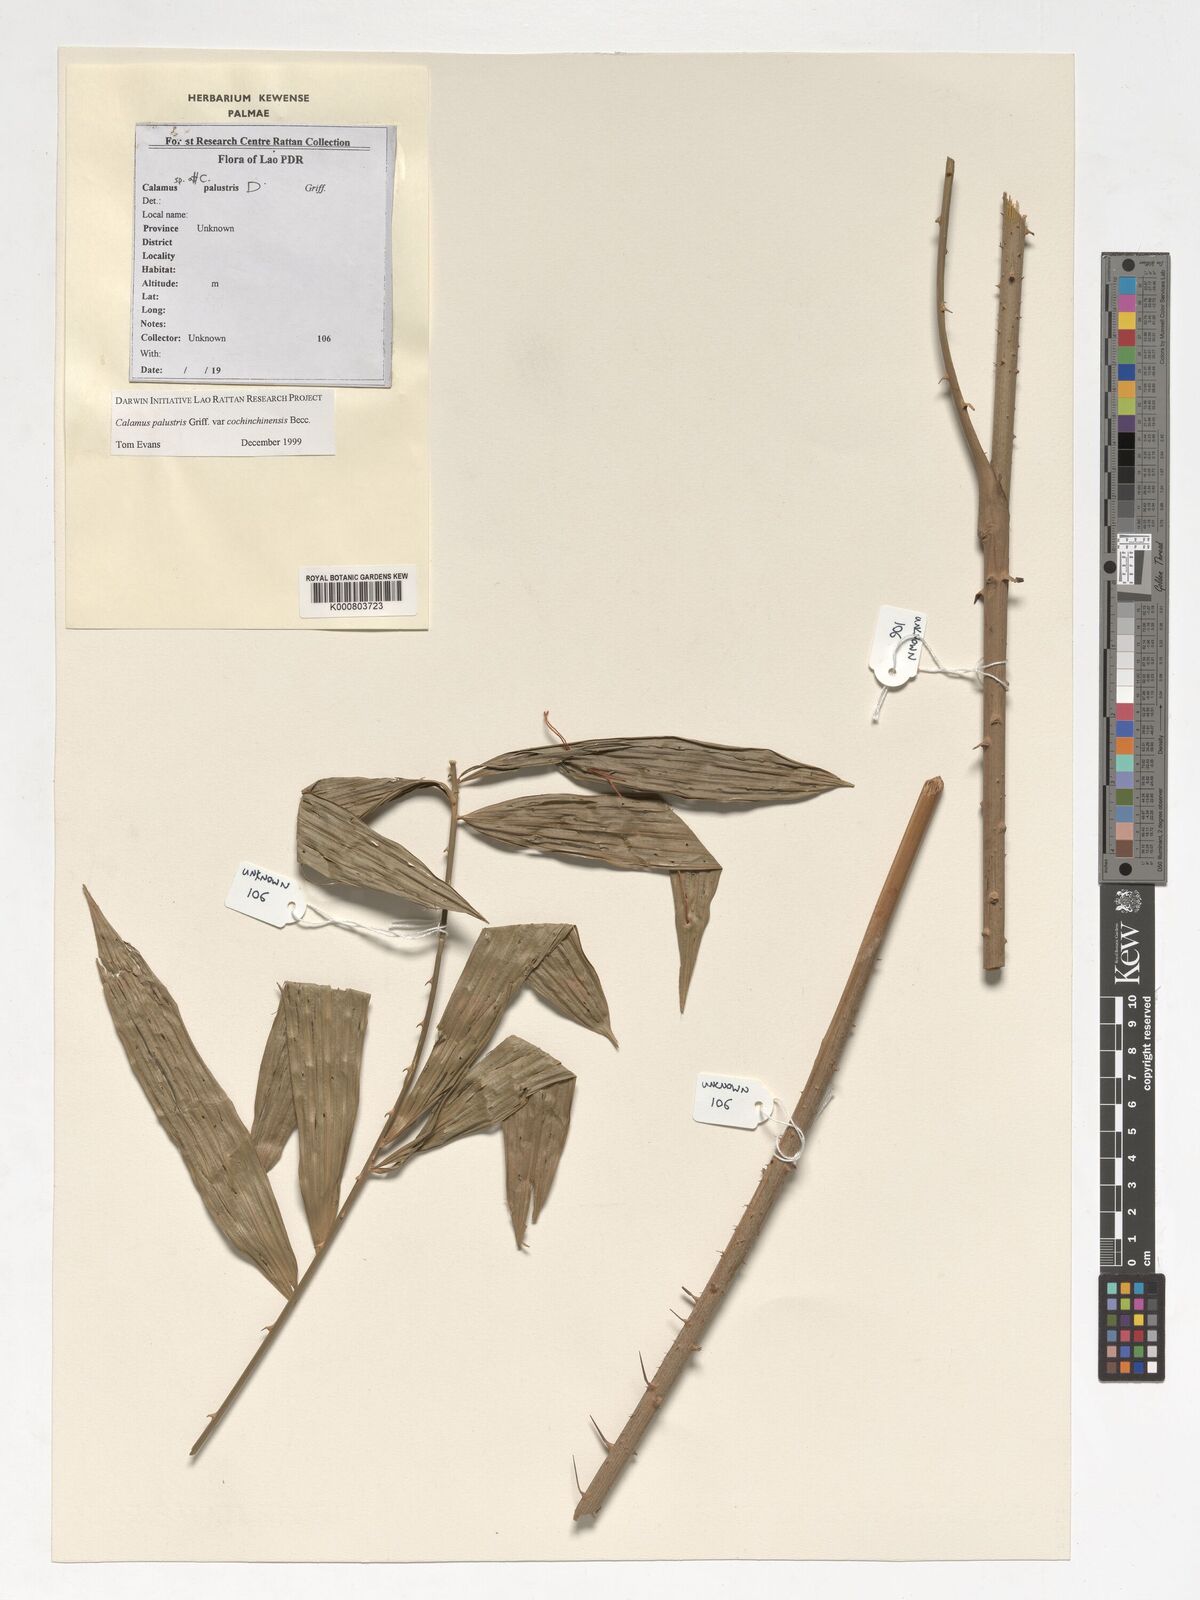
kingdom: Plantae
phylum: Tracheophyta
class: Liliopsida
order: Arecales
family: Arecaceae
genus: Calamus
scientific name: Calamus latifolius
